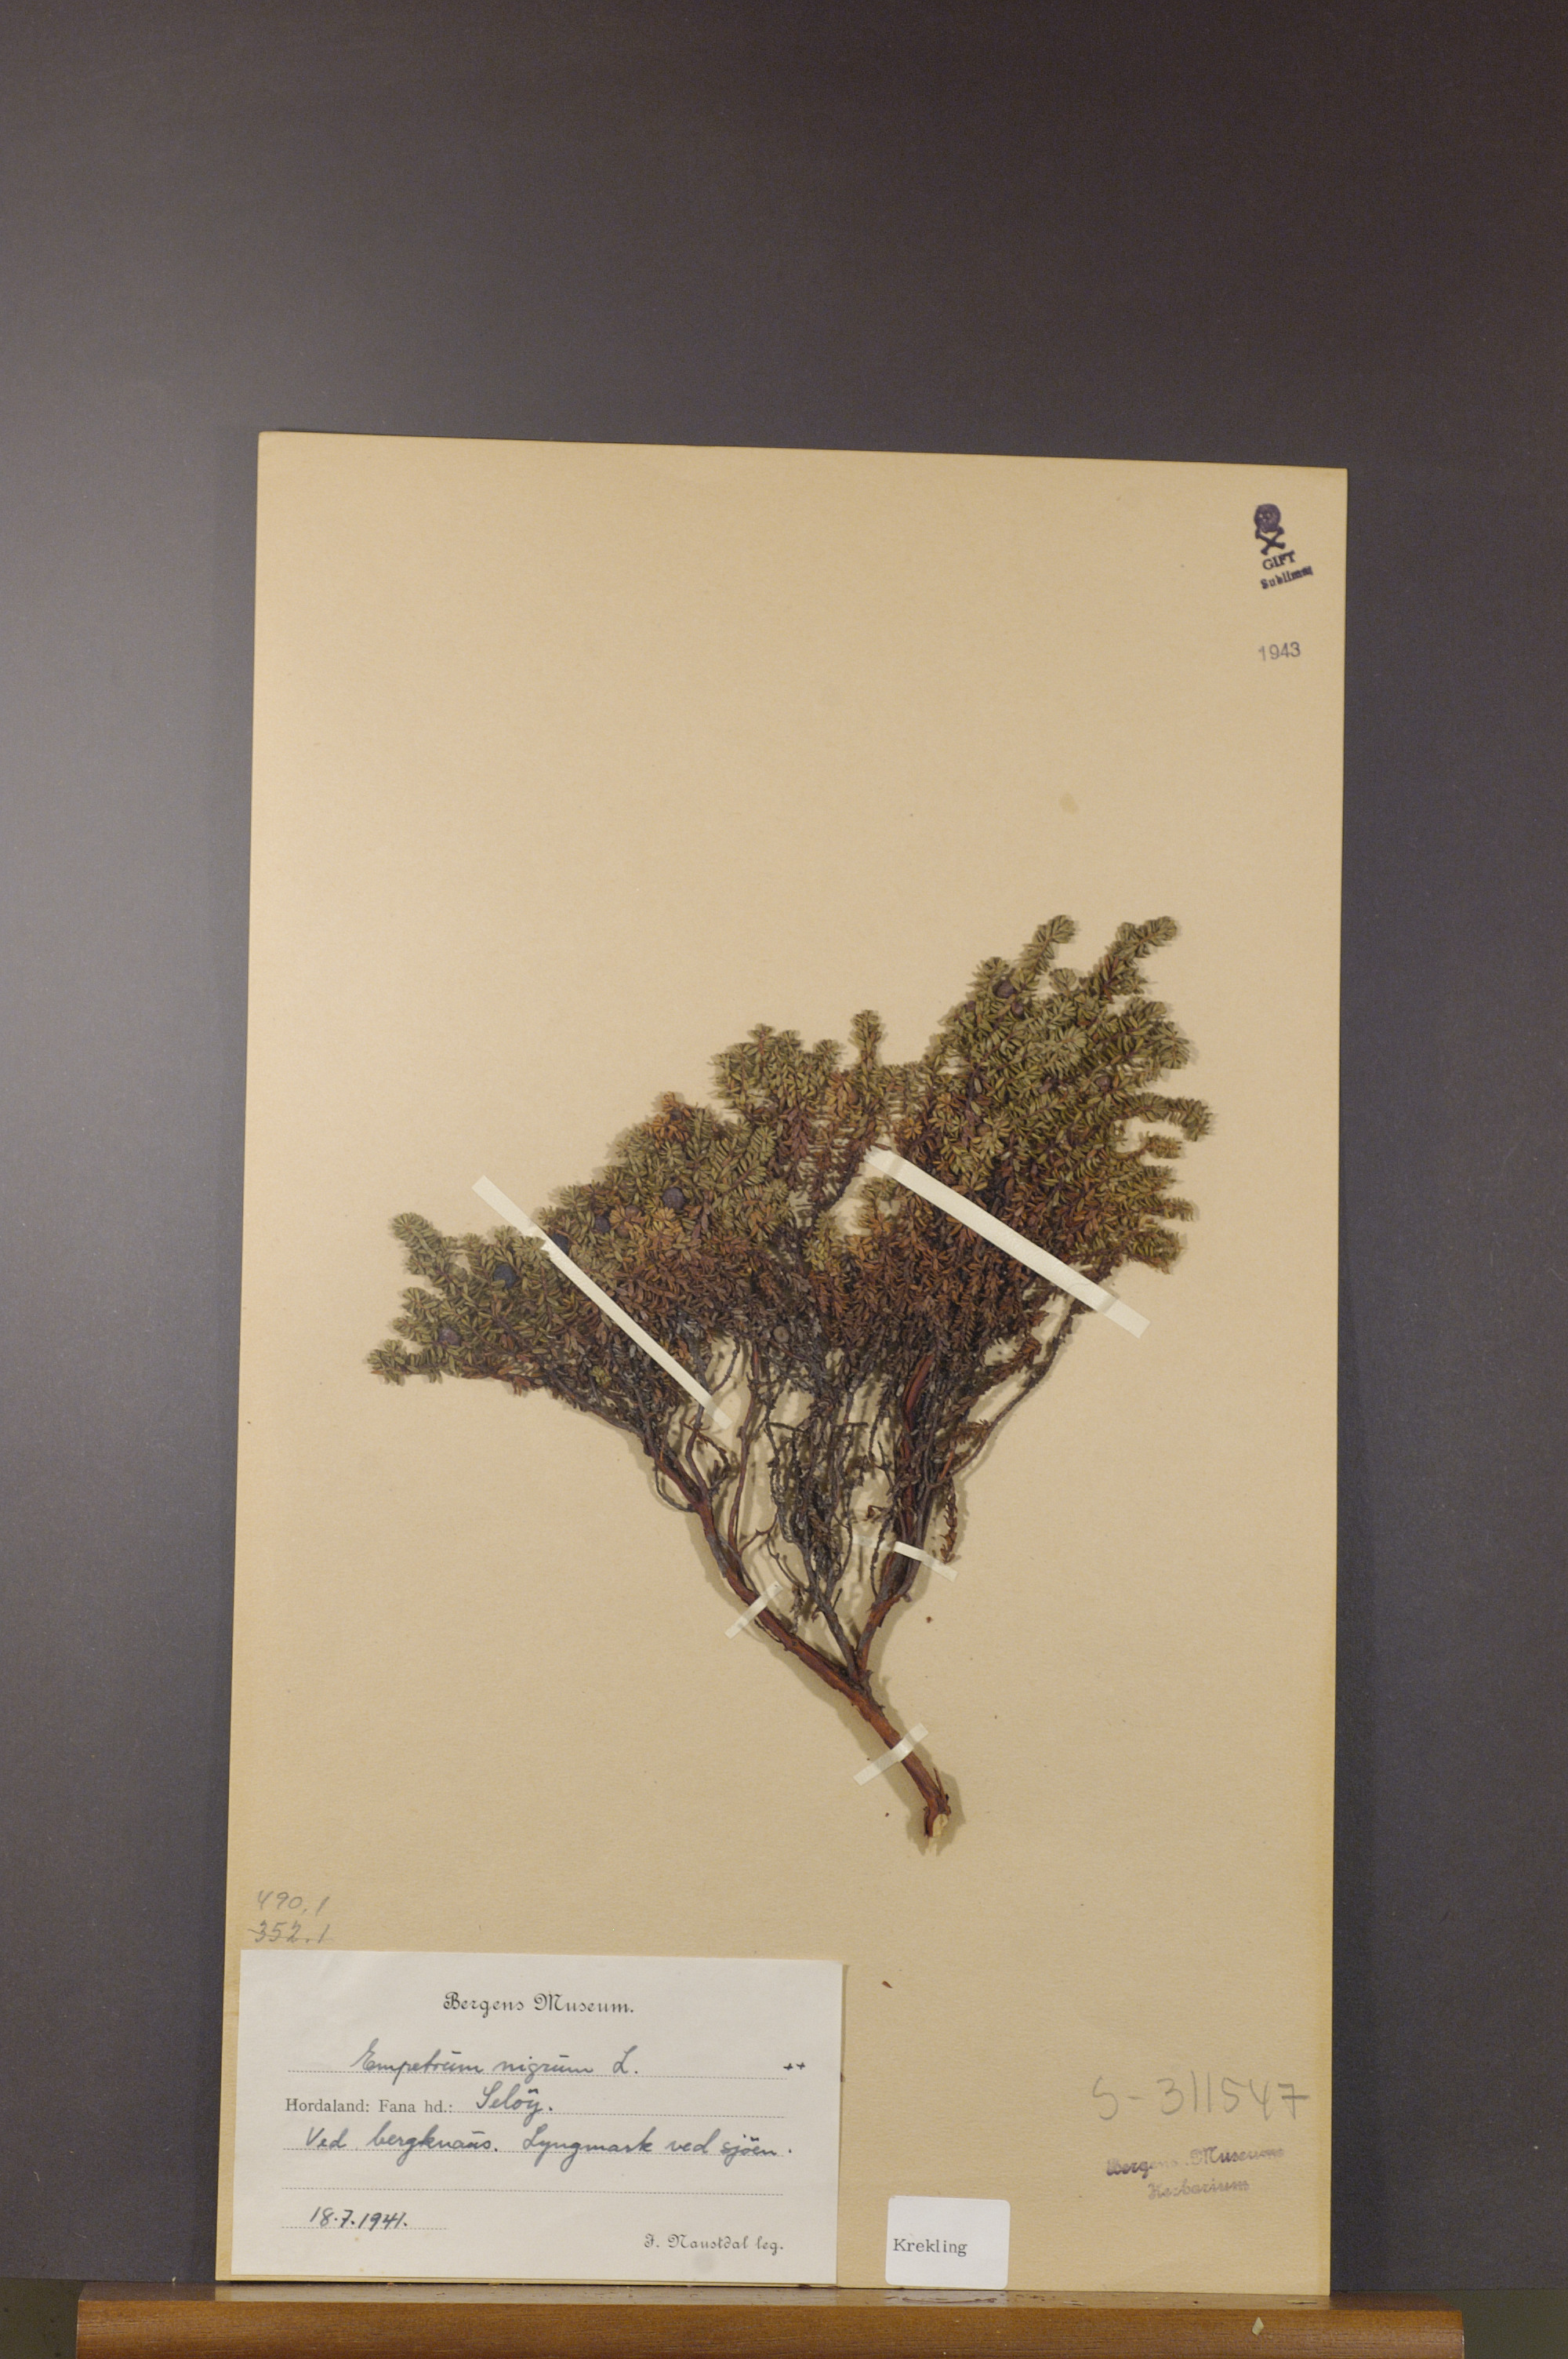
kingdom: Plantae
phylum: Tracheophyta
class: Magnoliopsida
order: Ericales
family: Ericaceae
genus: Empetrum
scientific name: Empetrum nigrum
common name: Black crowberry
